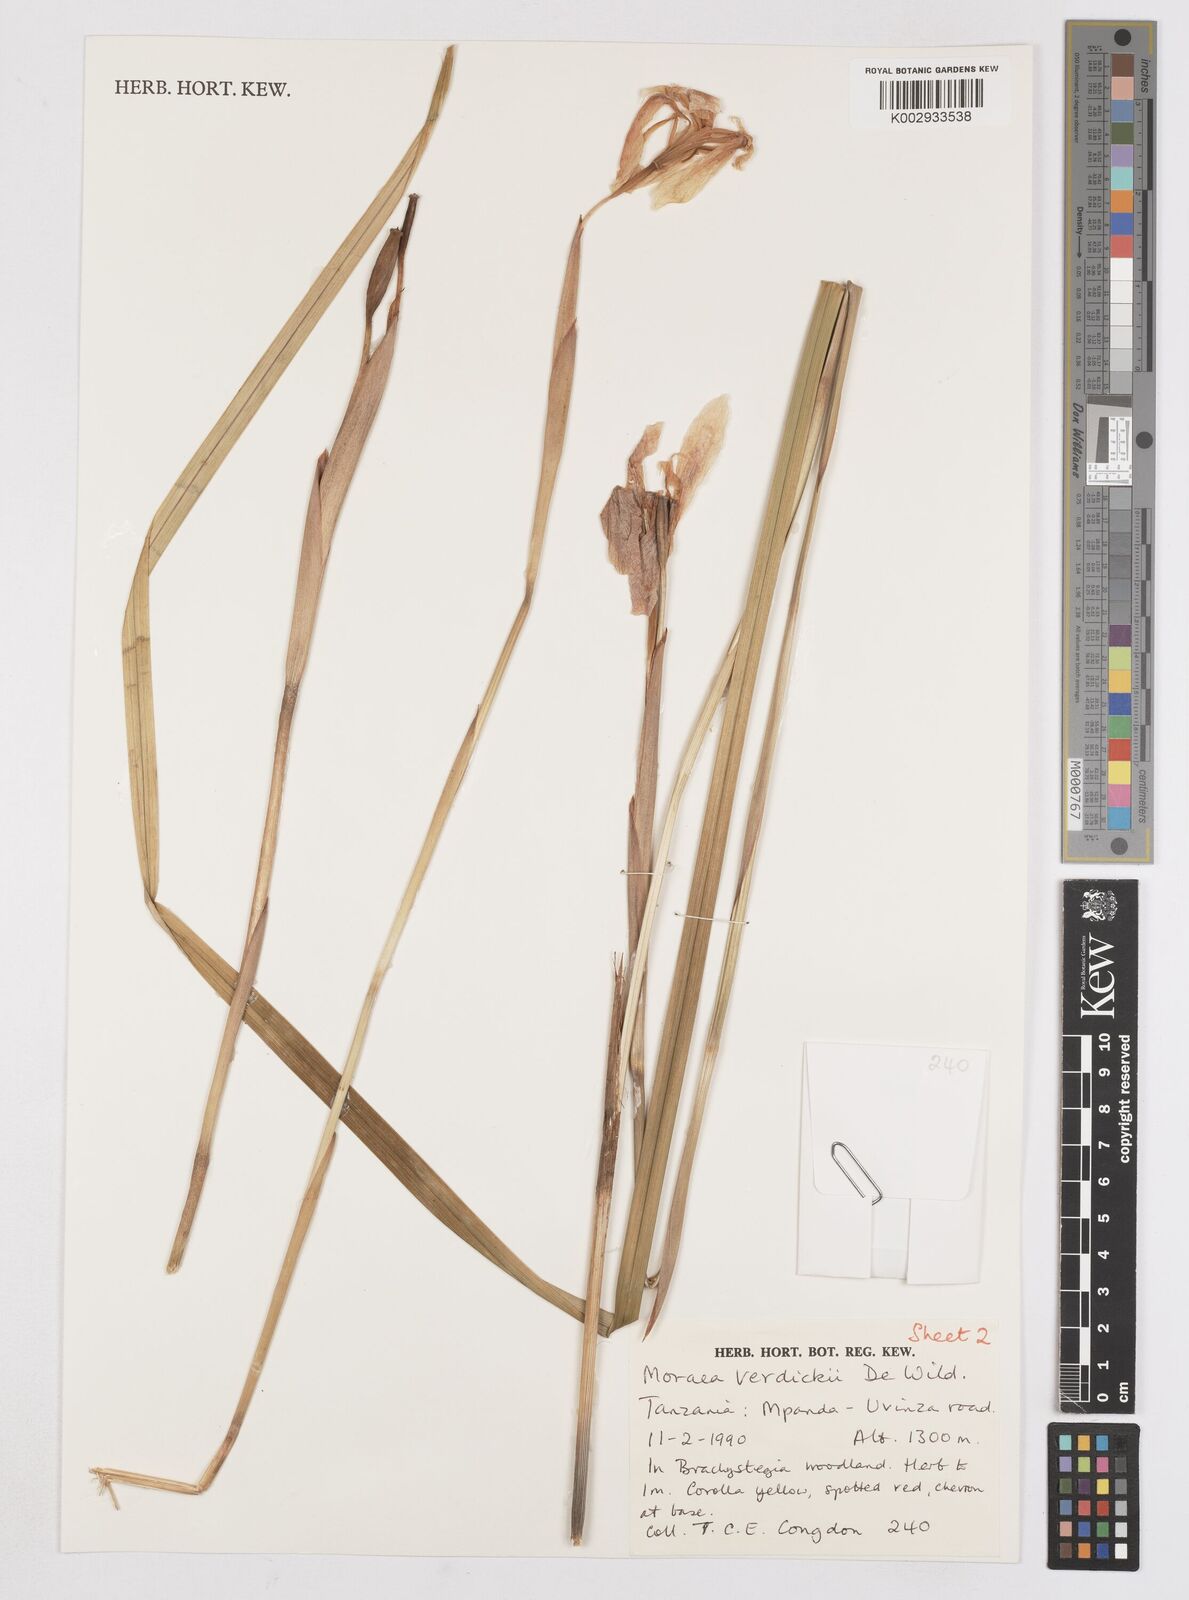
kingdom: Plantae
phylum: Tracheophyta
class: Liliopsida
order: Asparagales
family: Iridaceae
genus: Moraea
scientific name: Moraea verdickii
